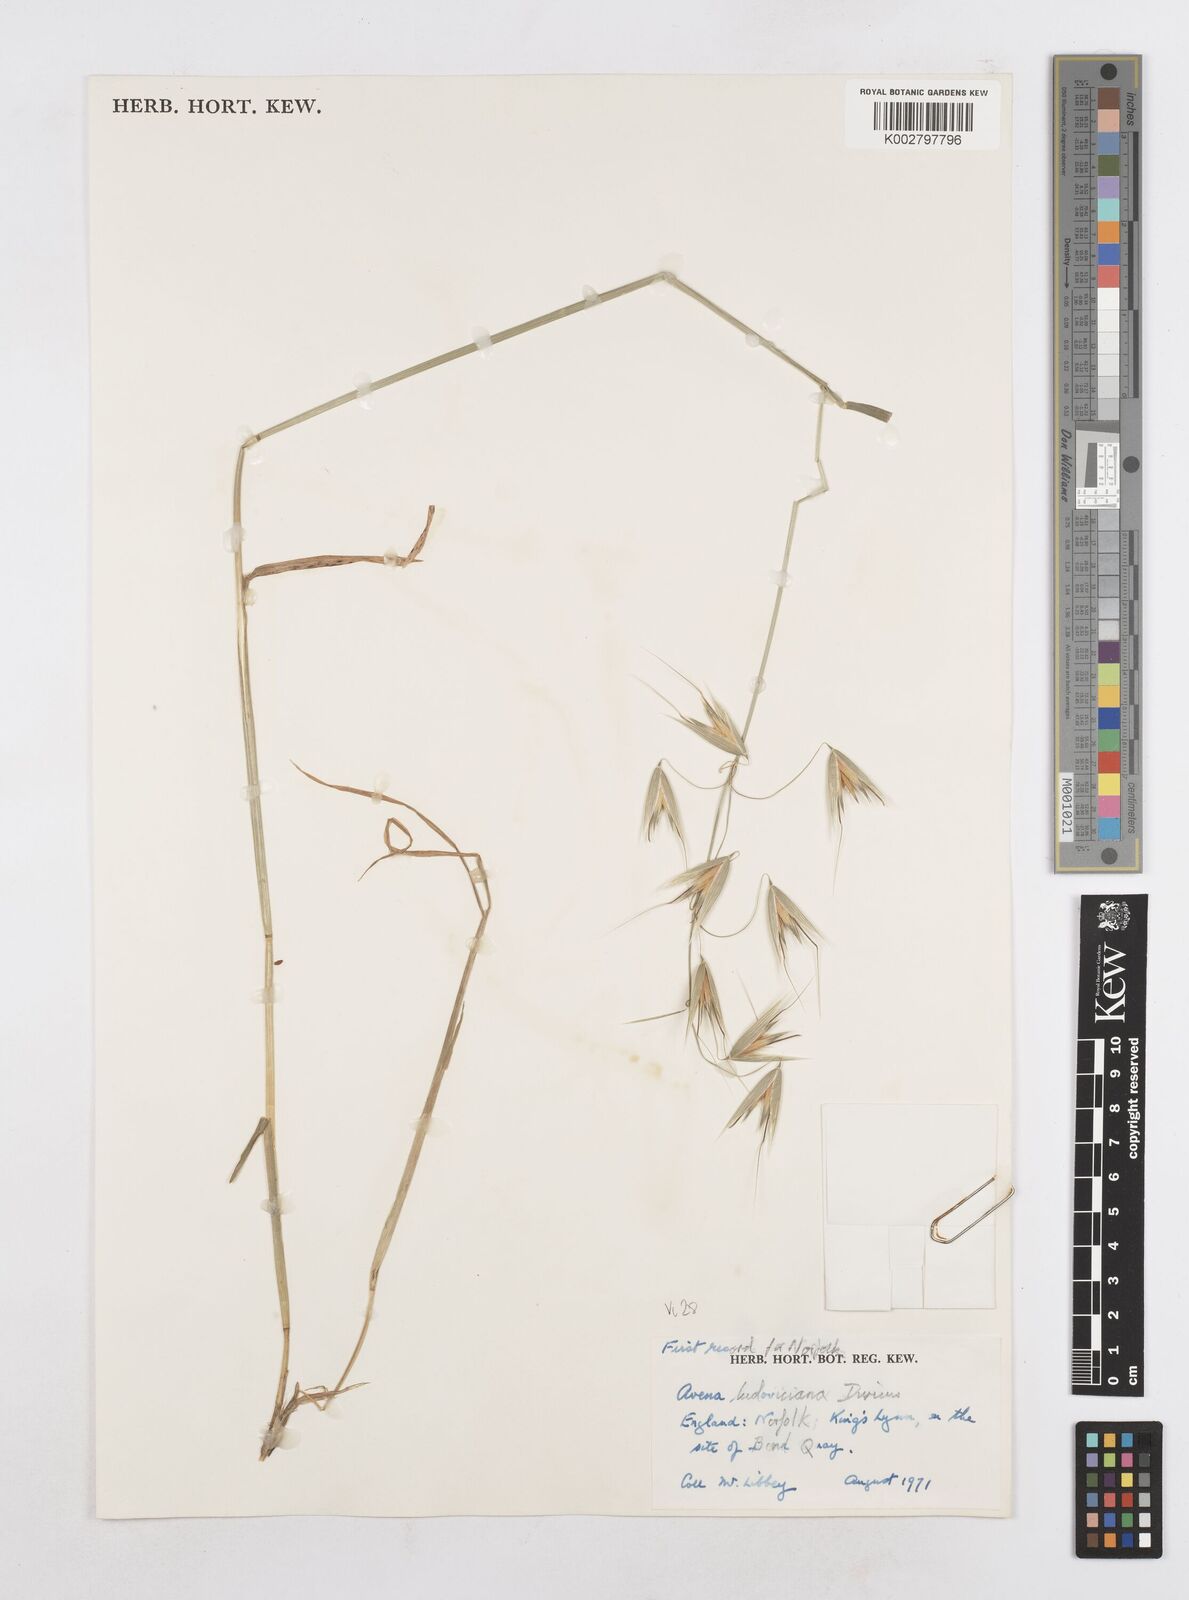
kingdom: Plantae
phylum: Tracheophyta
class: Liliopsida
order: Poales
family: Poaceae
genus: Avena
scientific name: Avena sterilis
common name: Animated oat
